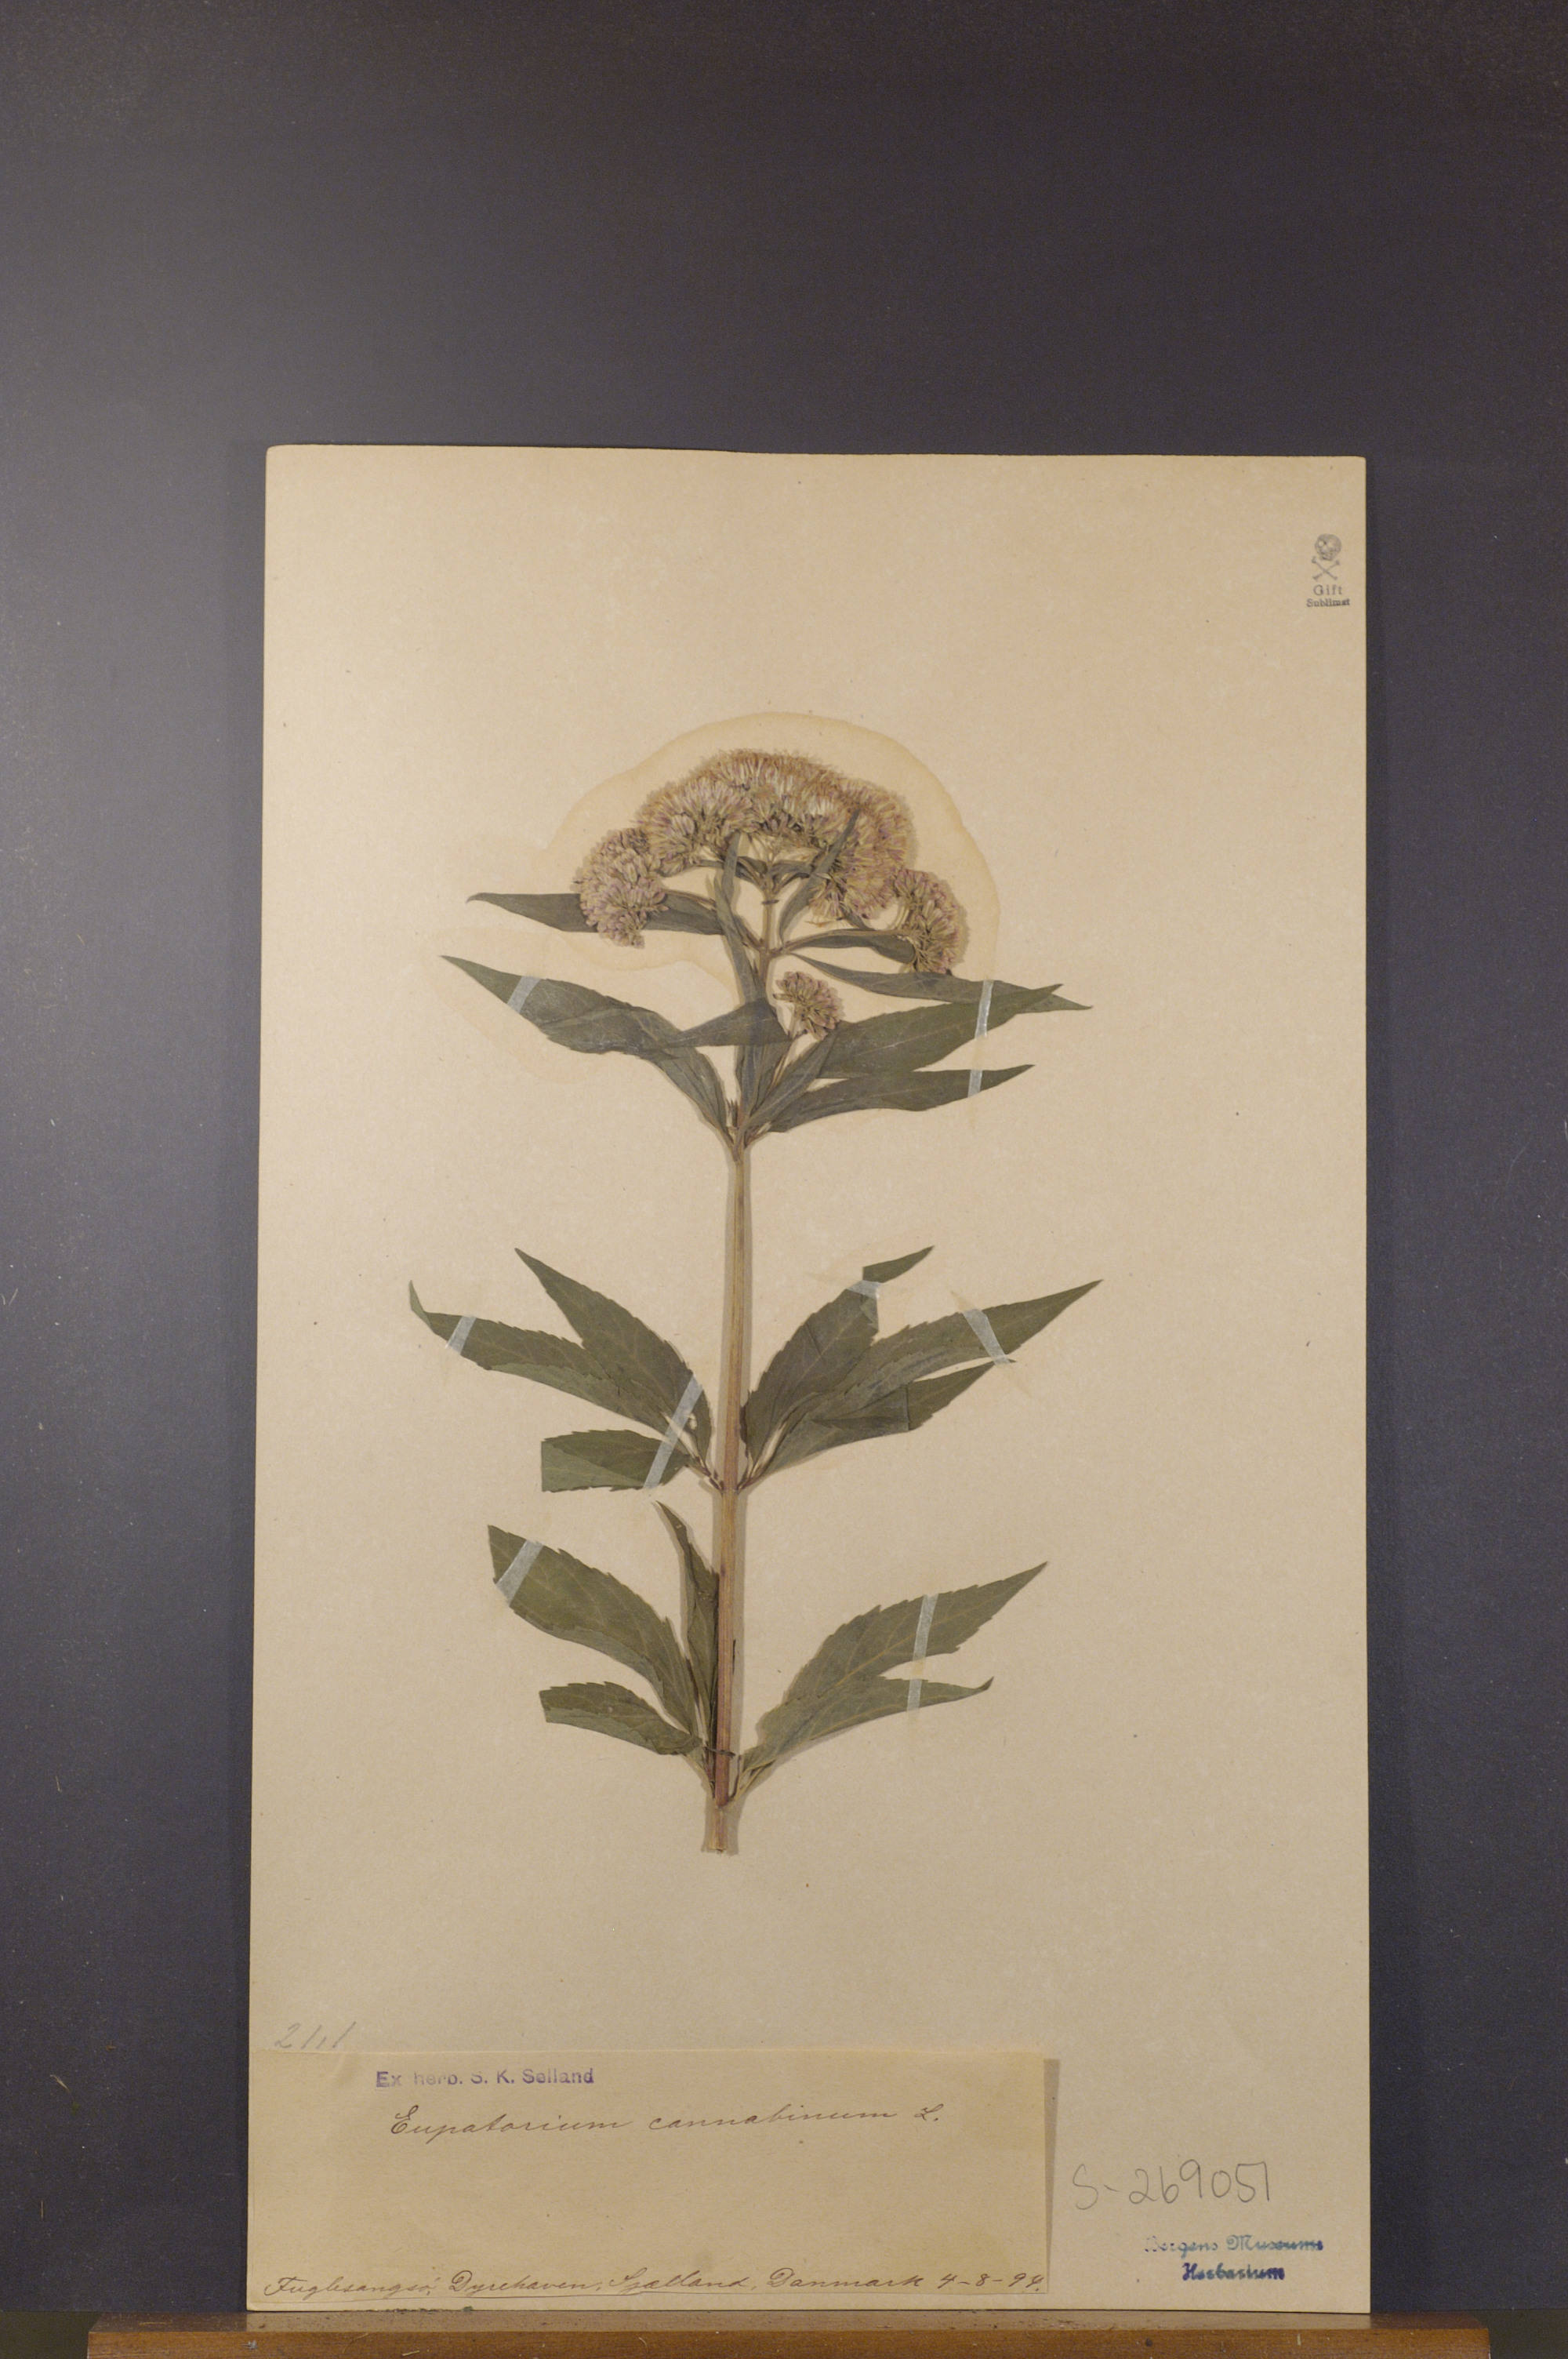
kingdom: Plantae
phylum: Tracheophyta
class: Magnoliopsida
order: Asterales
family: Asteraceae
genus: Eupatorium
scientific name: Eupatorium cannabinum
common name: Hemp-agrimony
